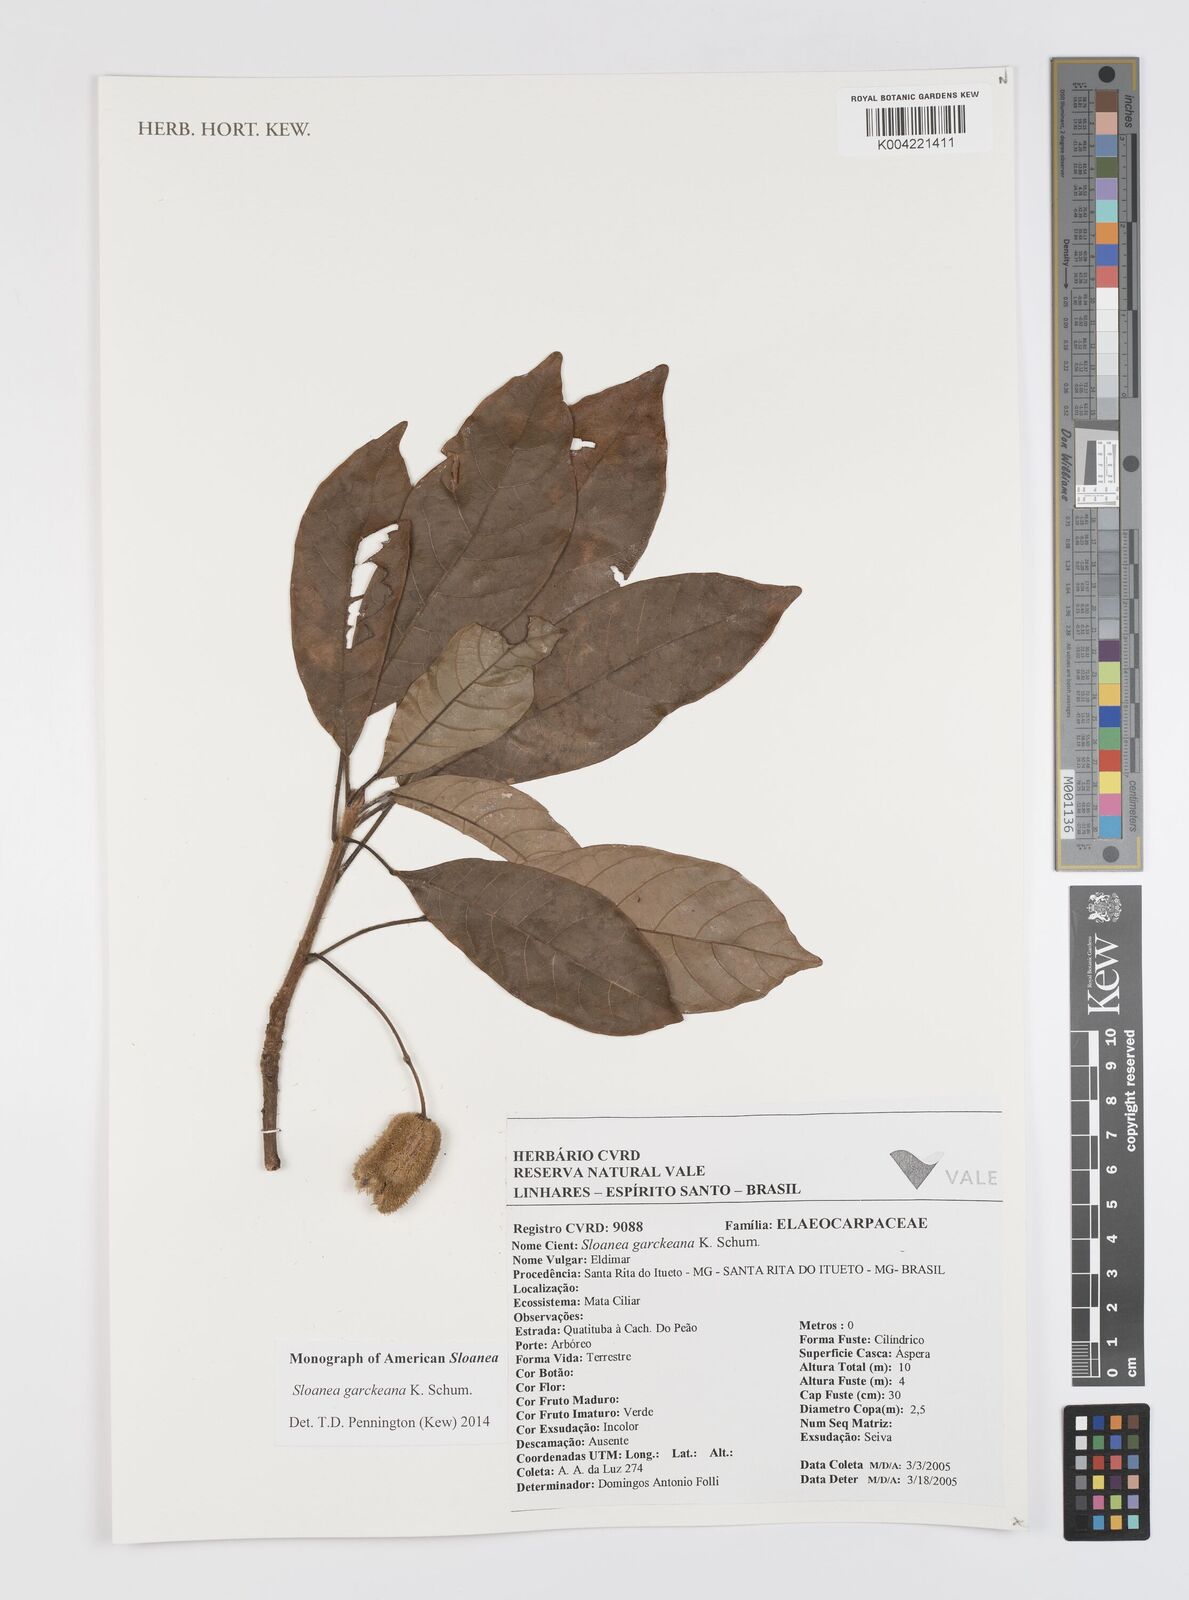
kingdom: Plantae
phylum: Tracheophyta
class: Magnoliopsida
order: Oxalidales
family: Elaeocarpaceae
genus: Sloanea
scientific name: Sloanea garckeana
